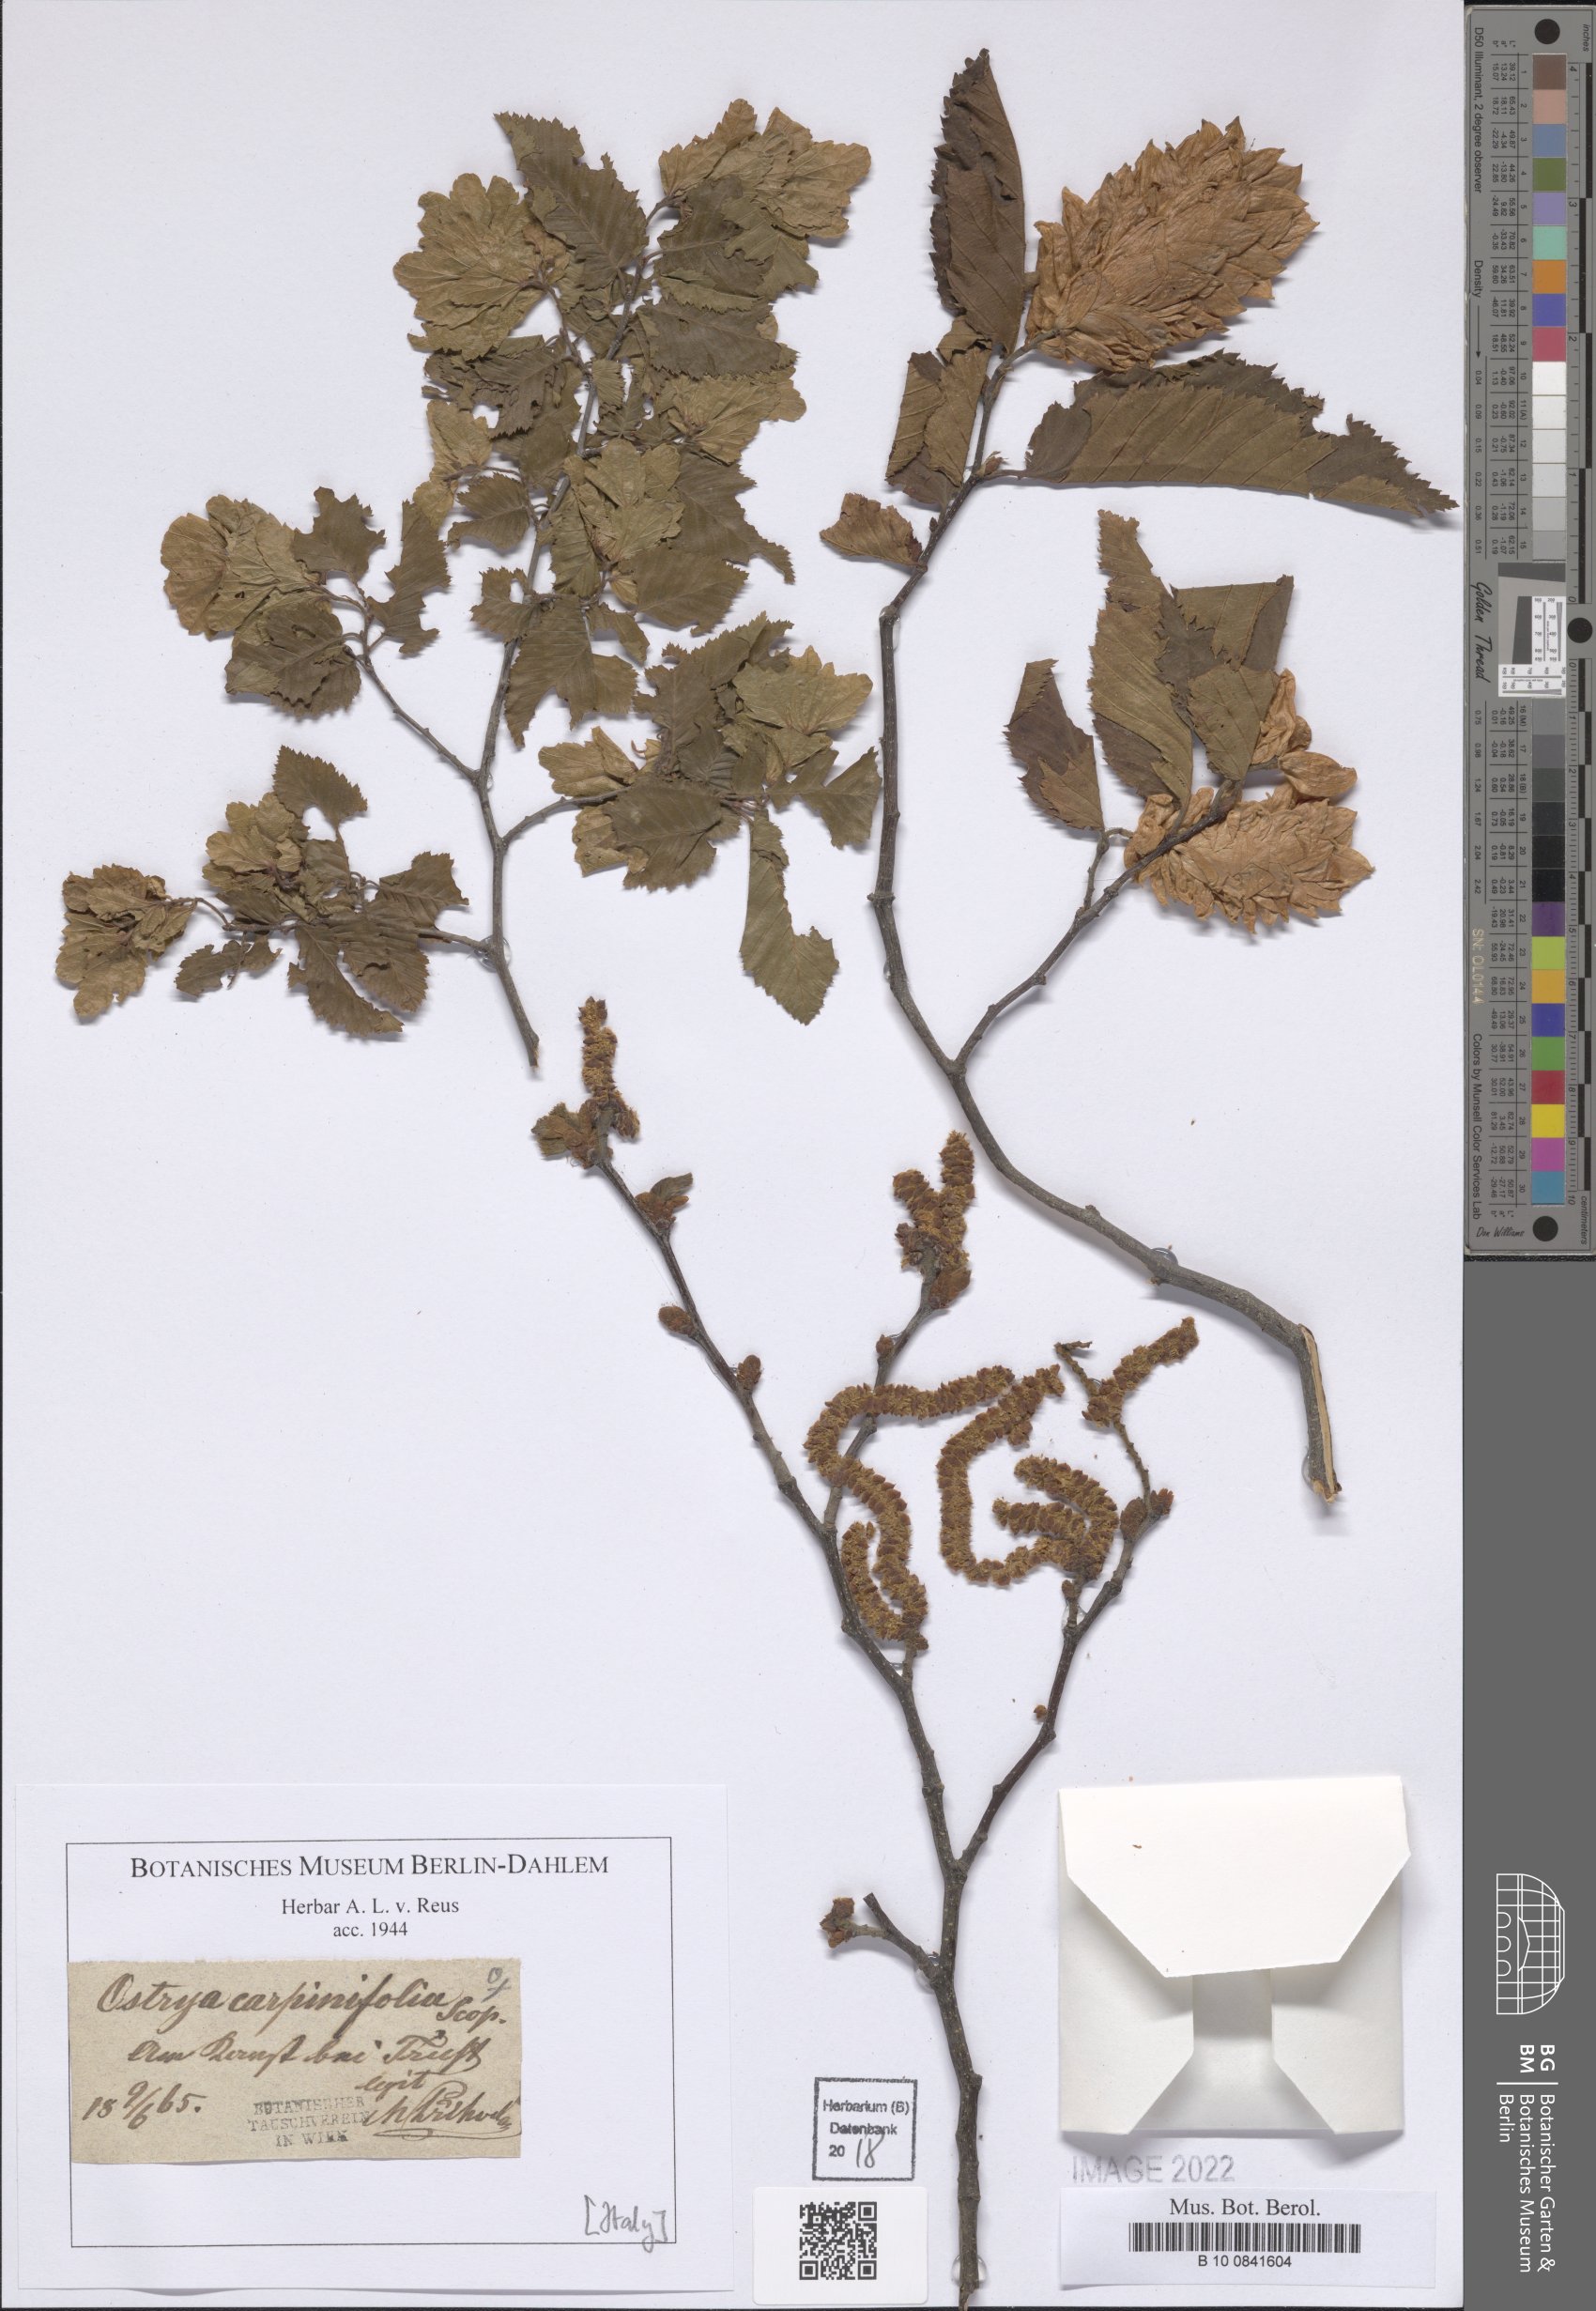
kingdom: Plantae
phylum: Tracheophyta
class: Magnoliopsida
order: Fagales
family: Betulaceae
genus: Ostrya
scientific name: Ostrya carpinifolia
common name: European hop-hornbeam
